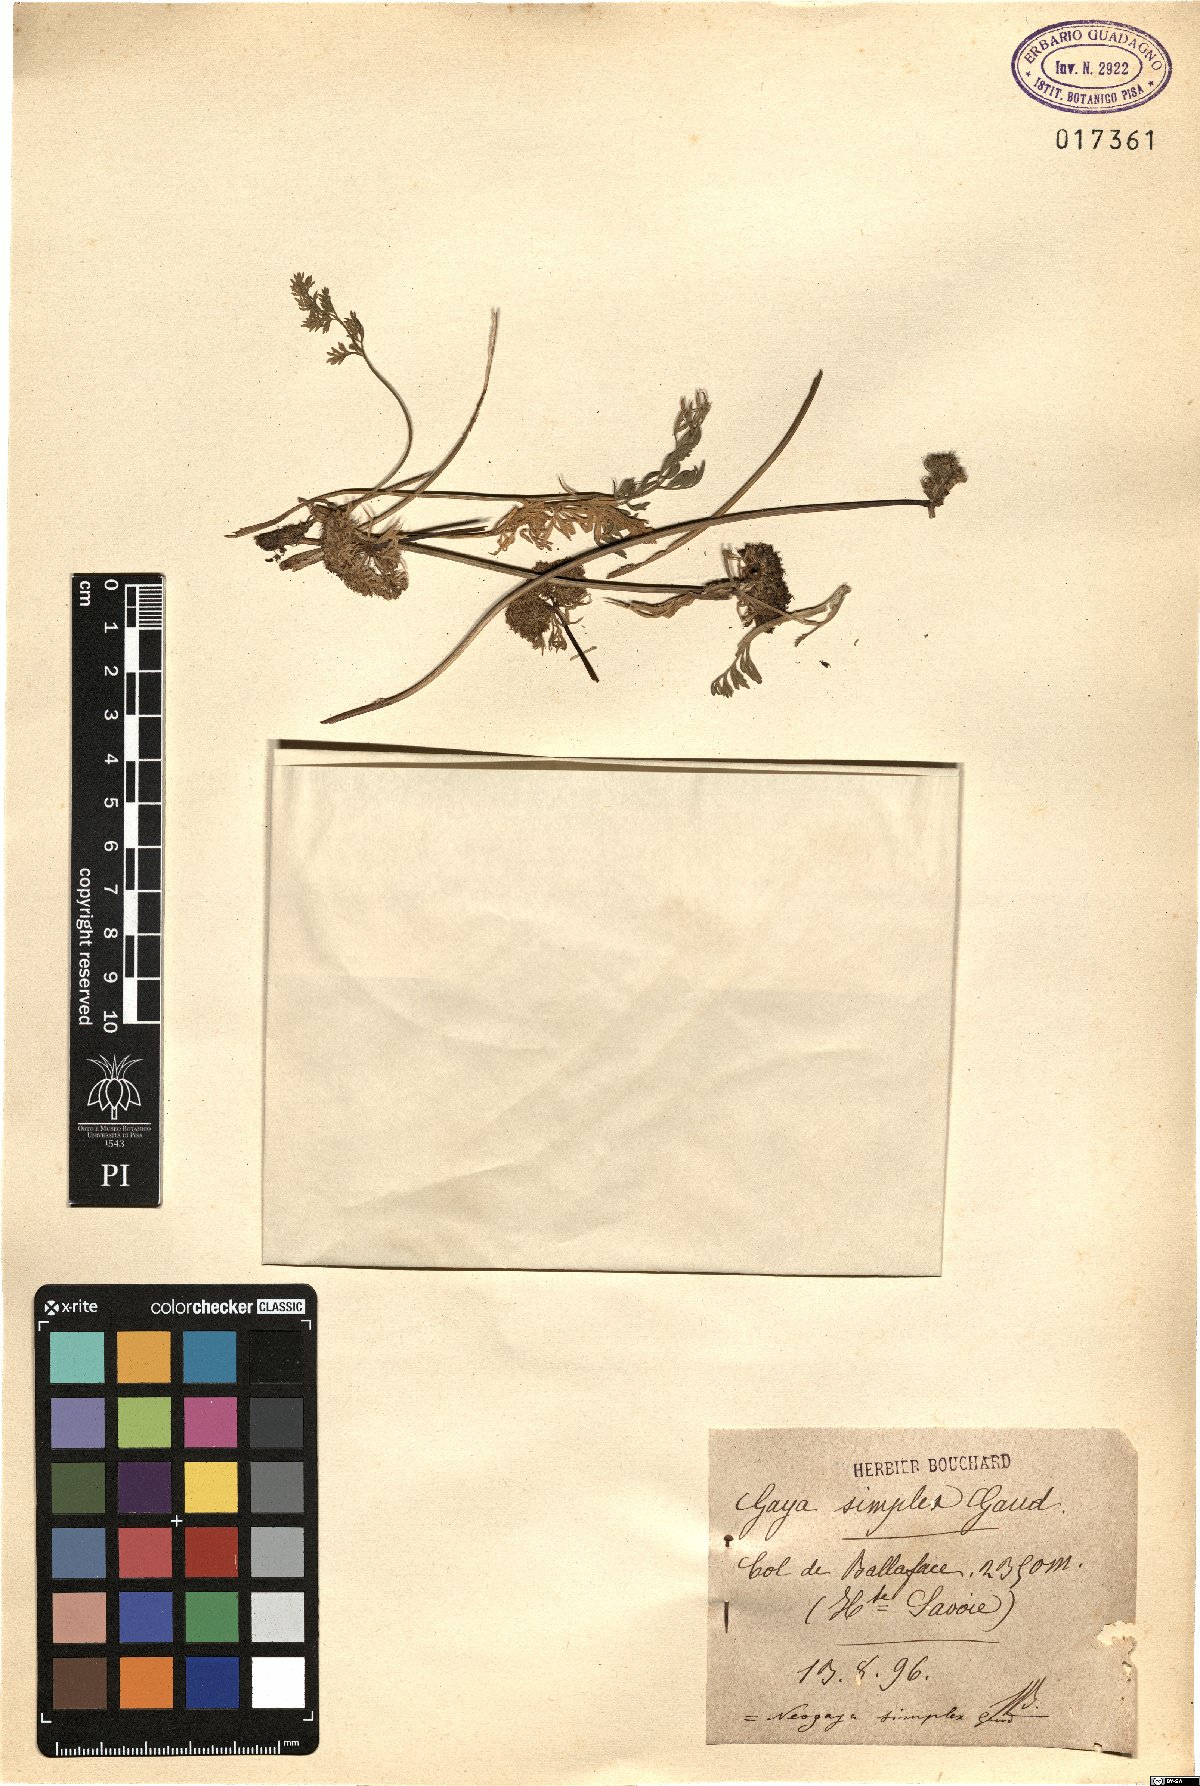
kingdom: Plantae
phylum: Tracheophyta
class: Magnoliopsida
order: Apiales
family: Apiaceae
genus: Pachypleurum
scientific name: Pachypleurum mutellinoides
